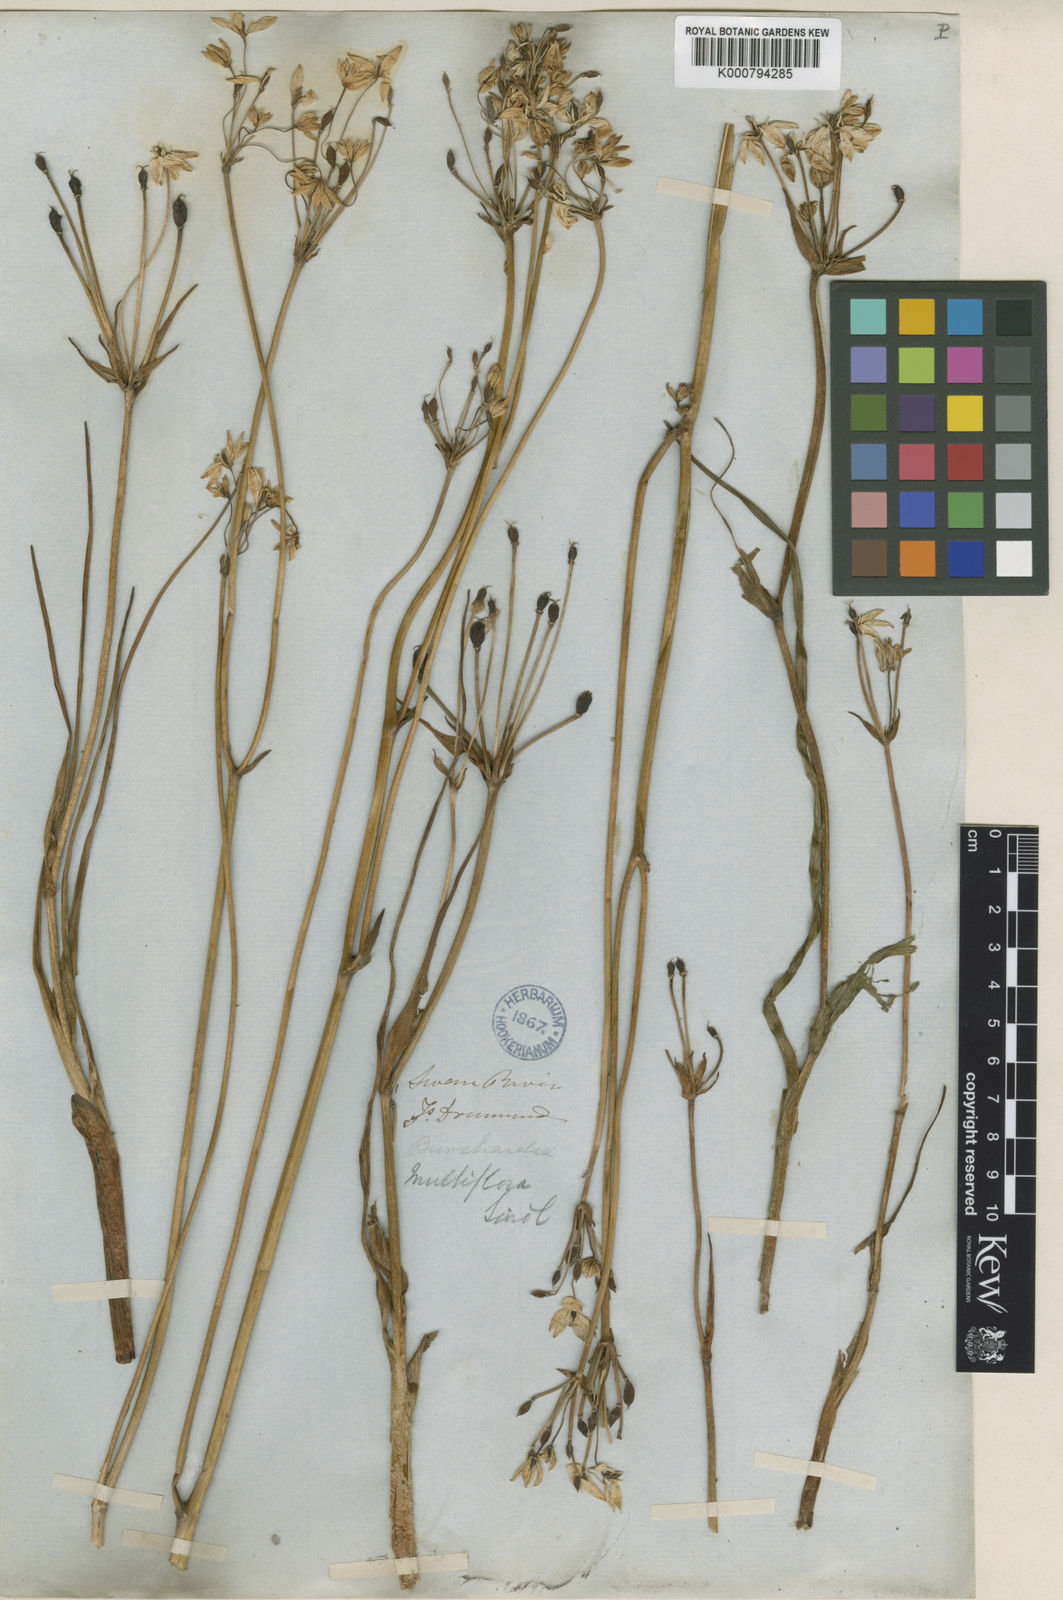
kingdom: Plantae
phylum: Tracheophyta
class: Liliopsida
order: Liliales
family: Colchicaceae
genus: Burchardia
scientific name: Burchardia multiflora
